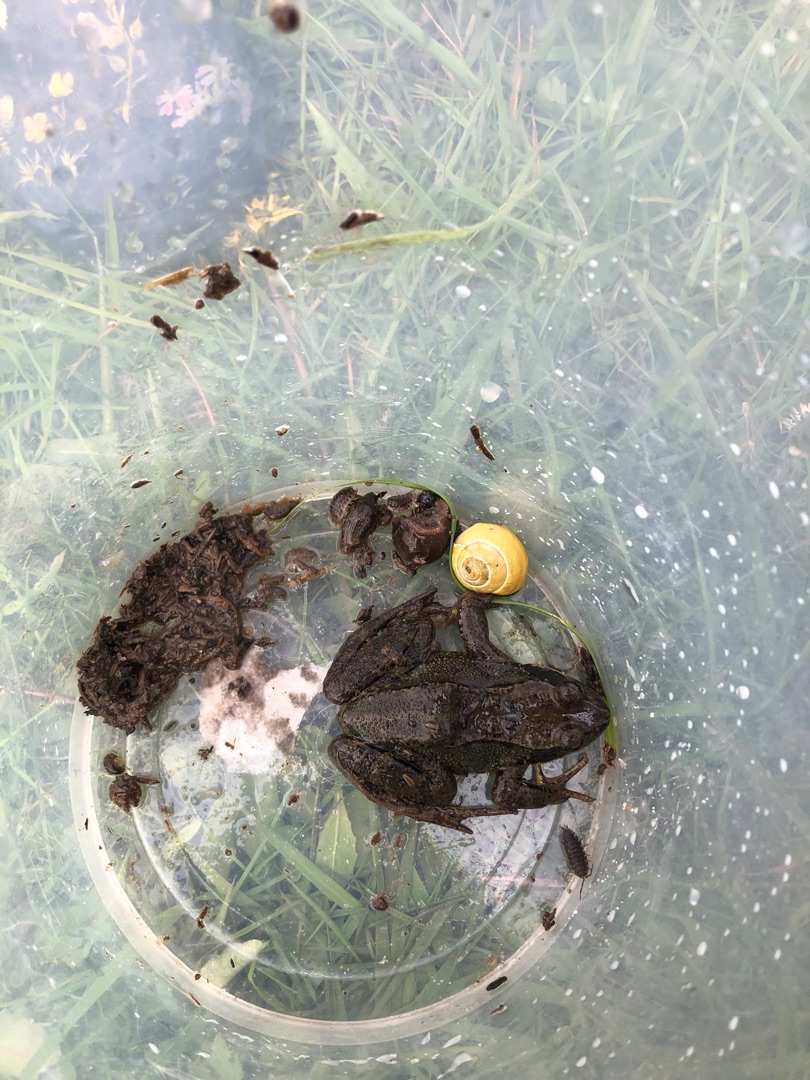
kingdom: Animalia
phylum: Chordata
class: Amphibia
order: Anura
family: Ranidae
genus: Rana
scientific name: Rana temporaria
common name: Butsnudet frø
